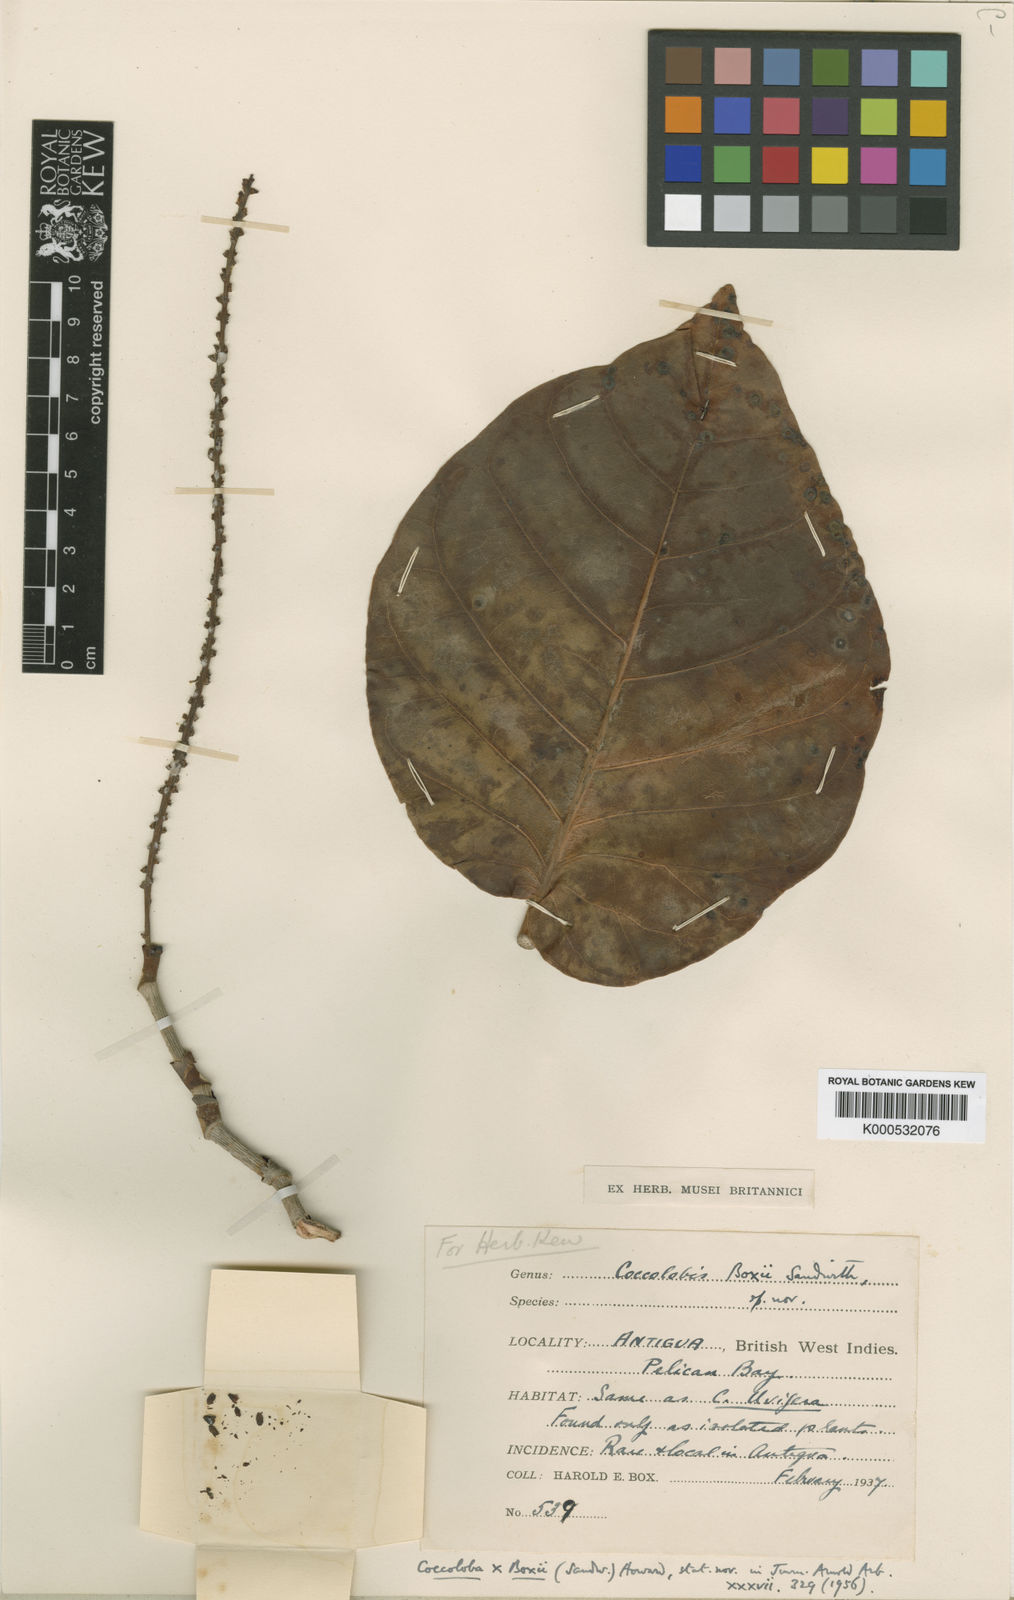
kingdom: Plantae
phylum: Tracheophyta
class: Magnoliopsida
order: Caryophyllales
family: Polygonaceae
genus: Coccoloba
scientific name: Coccoloba boxii
